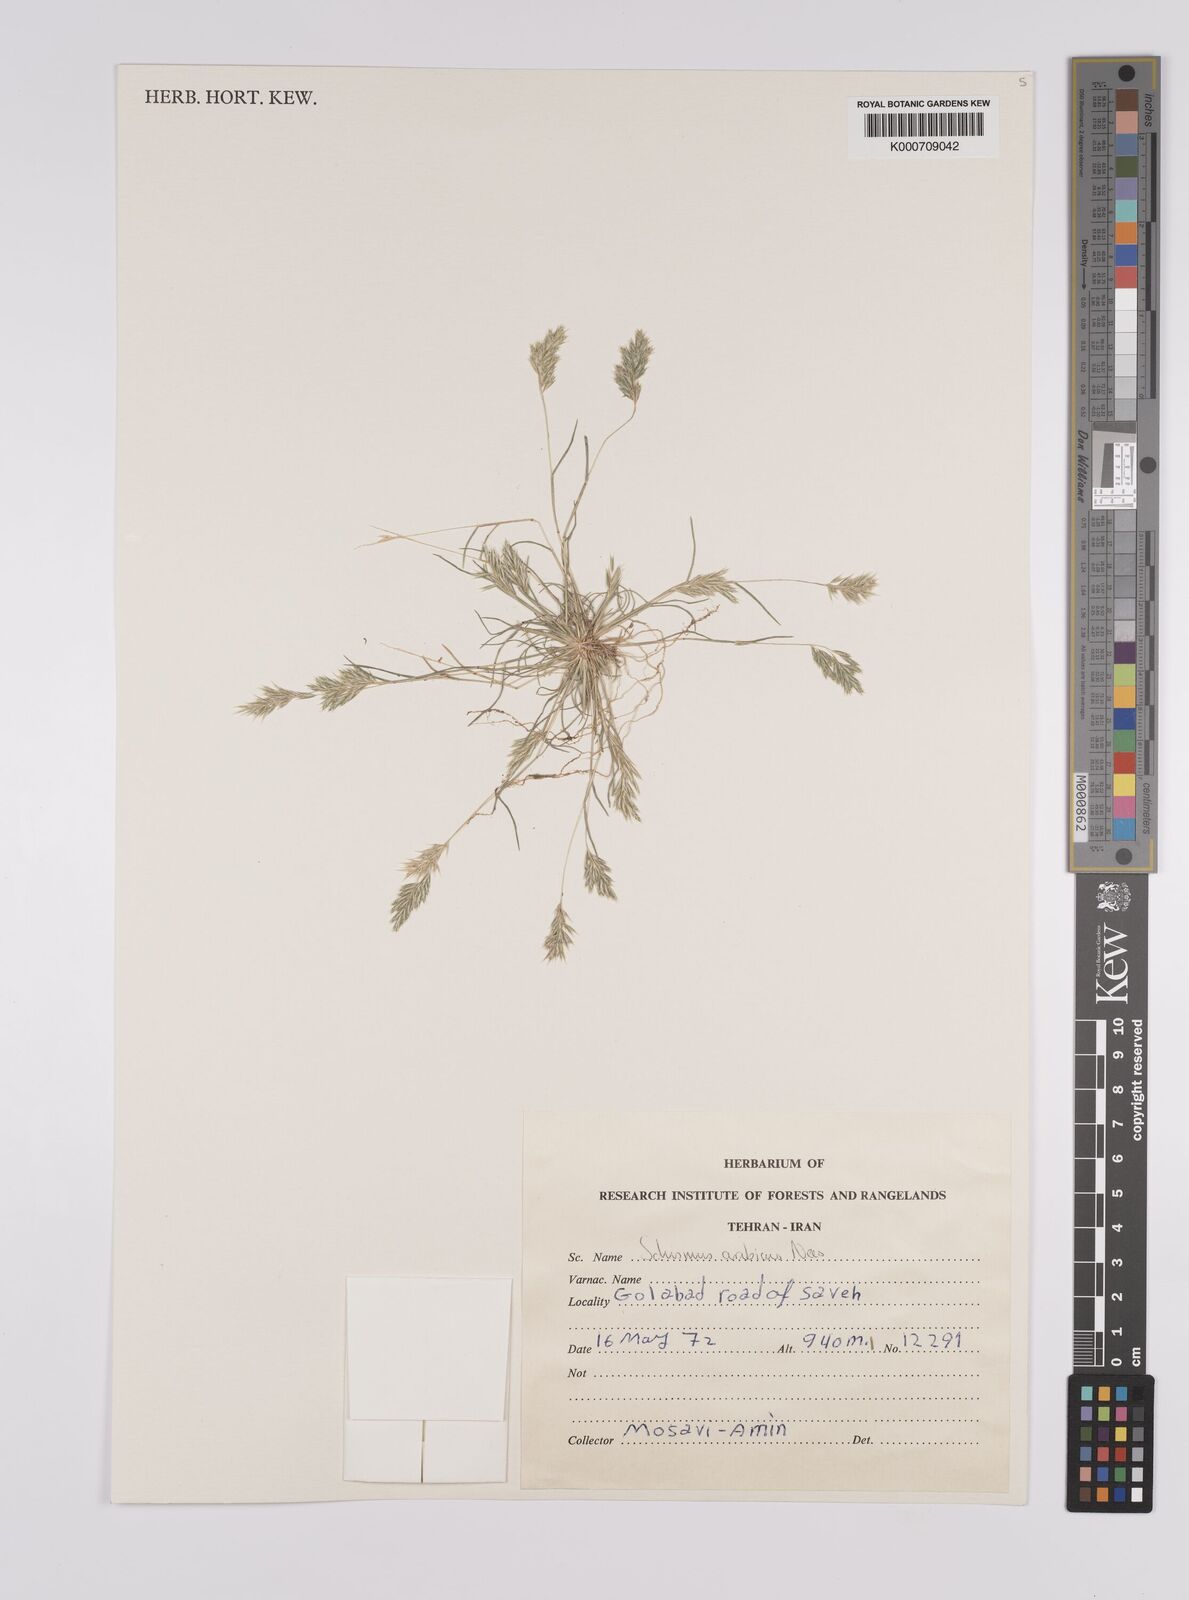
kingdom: Plantae
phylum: Tracheophyta
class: Liliopsida
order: Poales
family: Poaceae
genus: Schismus
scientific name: Schismus arabicus
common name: Arabian schismus
